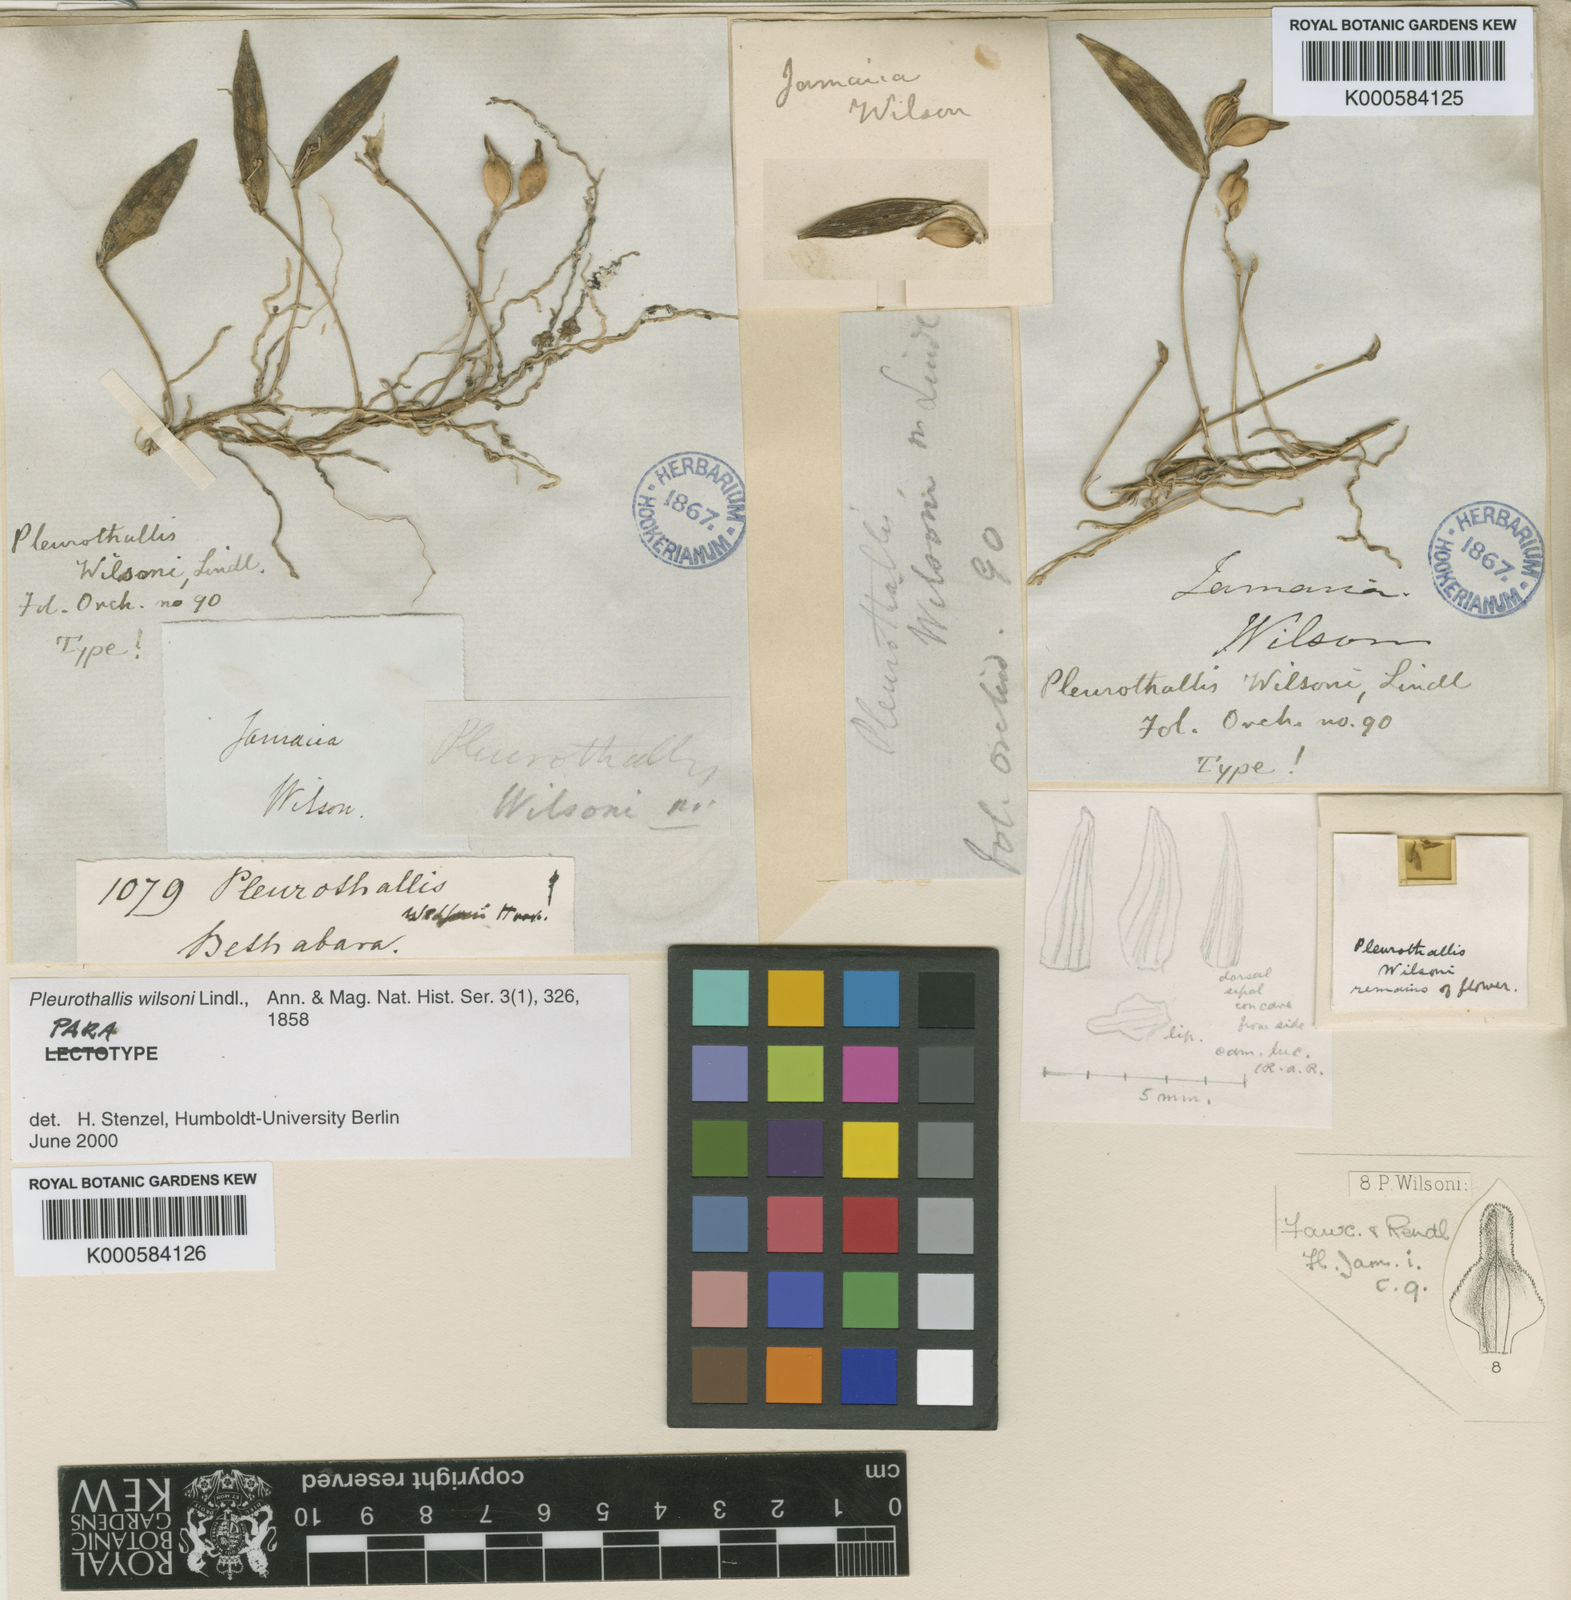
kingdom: Plantae
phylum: Tracheophyta
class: Liliopsida
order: Asparagales
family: Orchidaceae
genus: Acianthera
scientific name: Acianthera wilsonii
